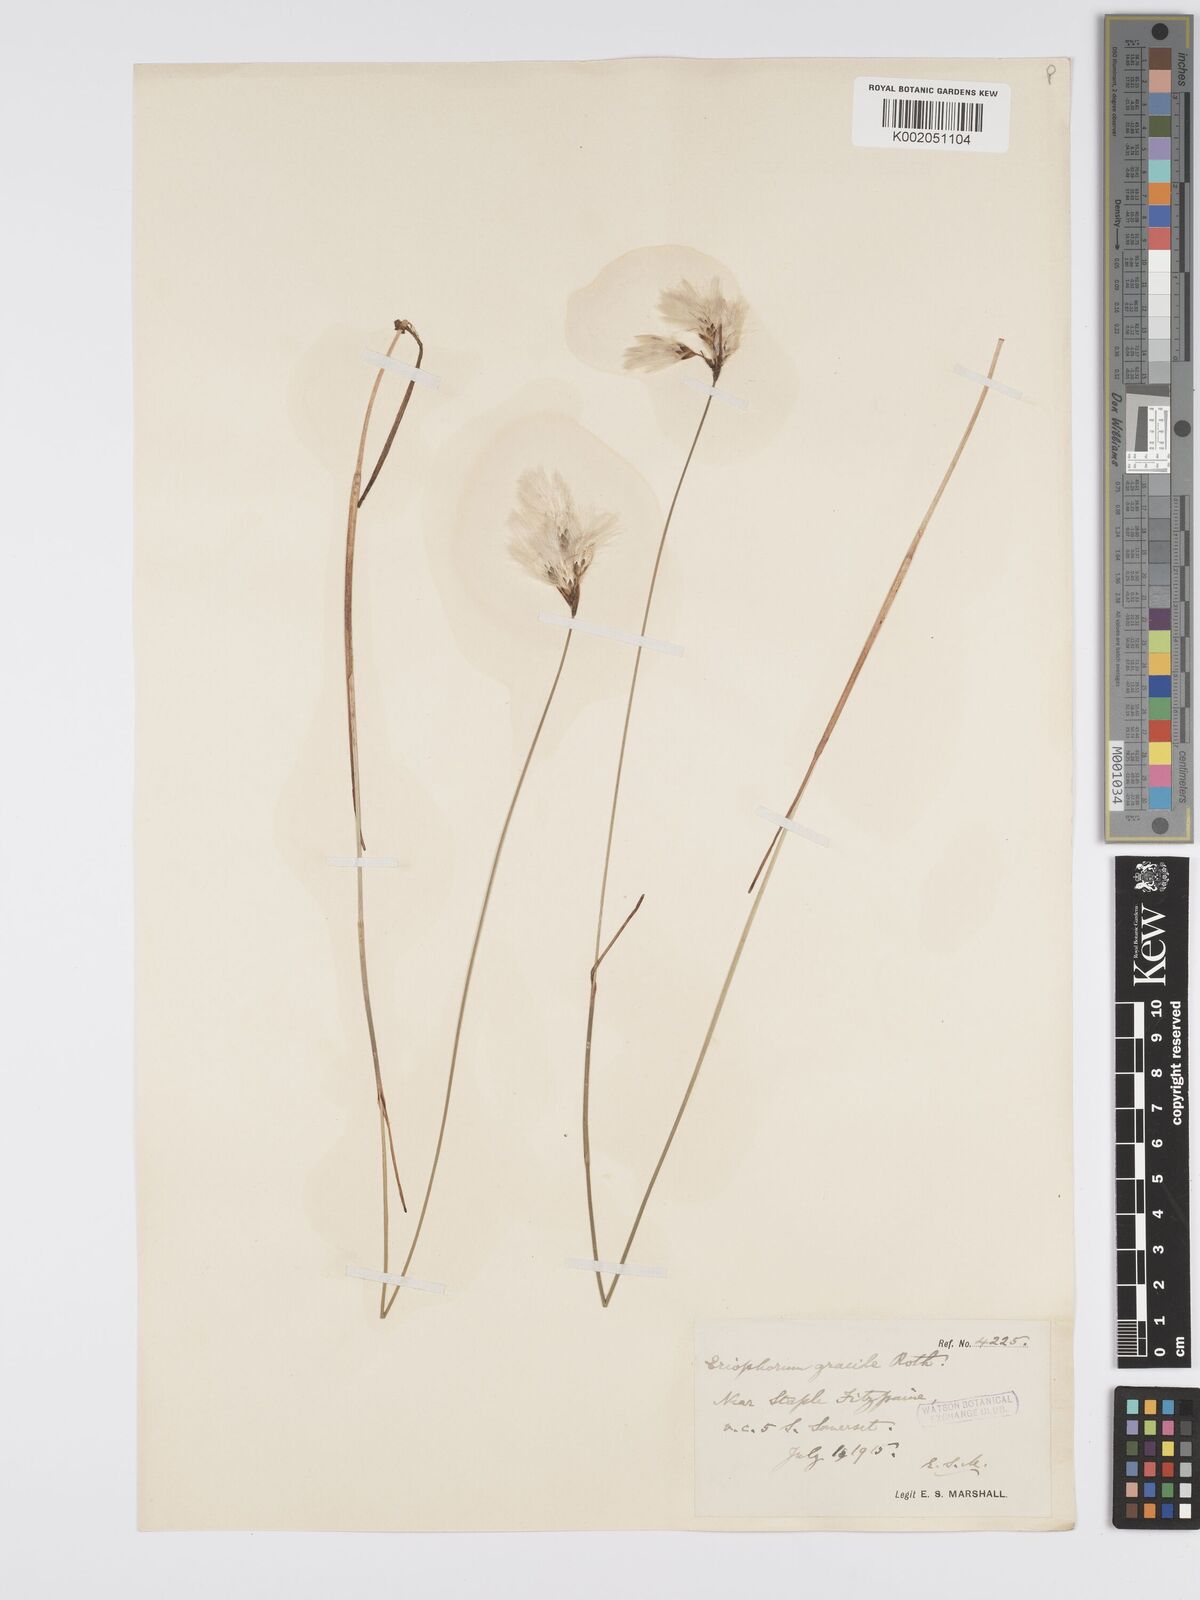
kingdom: Plantae
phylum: Tracheophyta
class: Liliopsida
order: Poales
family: Cyperaceae
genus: Eriophorum
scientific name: Eriophorum gracile
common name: Slender cottongrass
